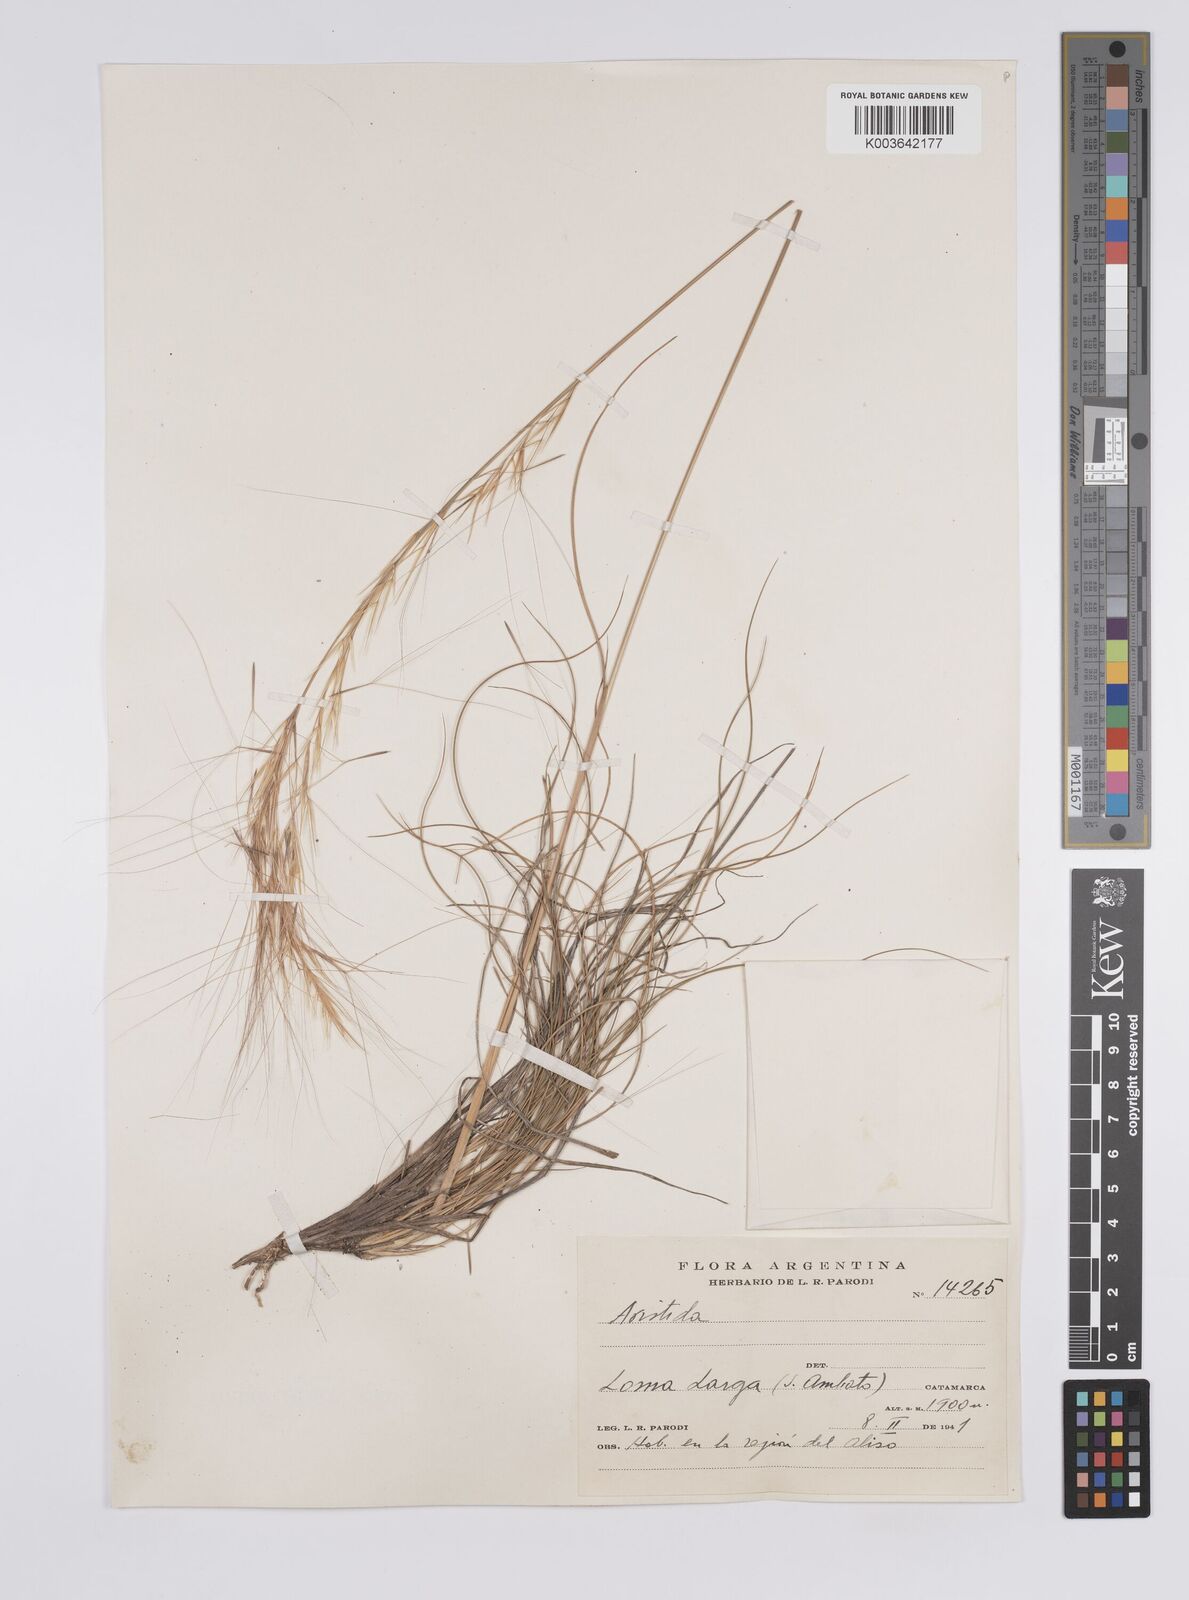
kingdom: Plantae
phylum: Tracheophyta
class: Liliopsida
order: Poales
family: Poaceae
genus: Aristida
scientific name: Aristida
